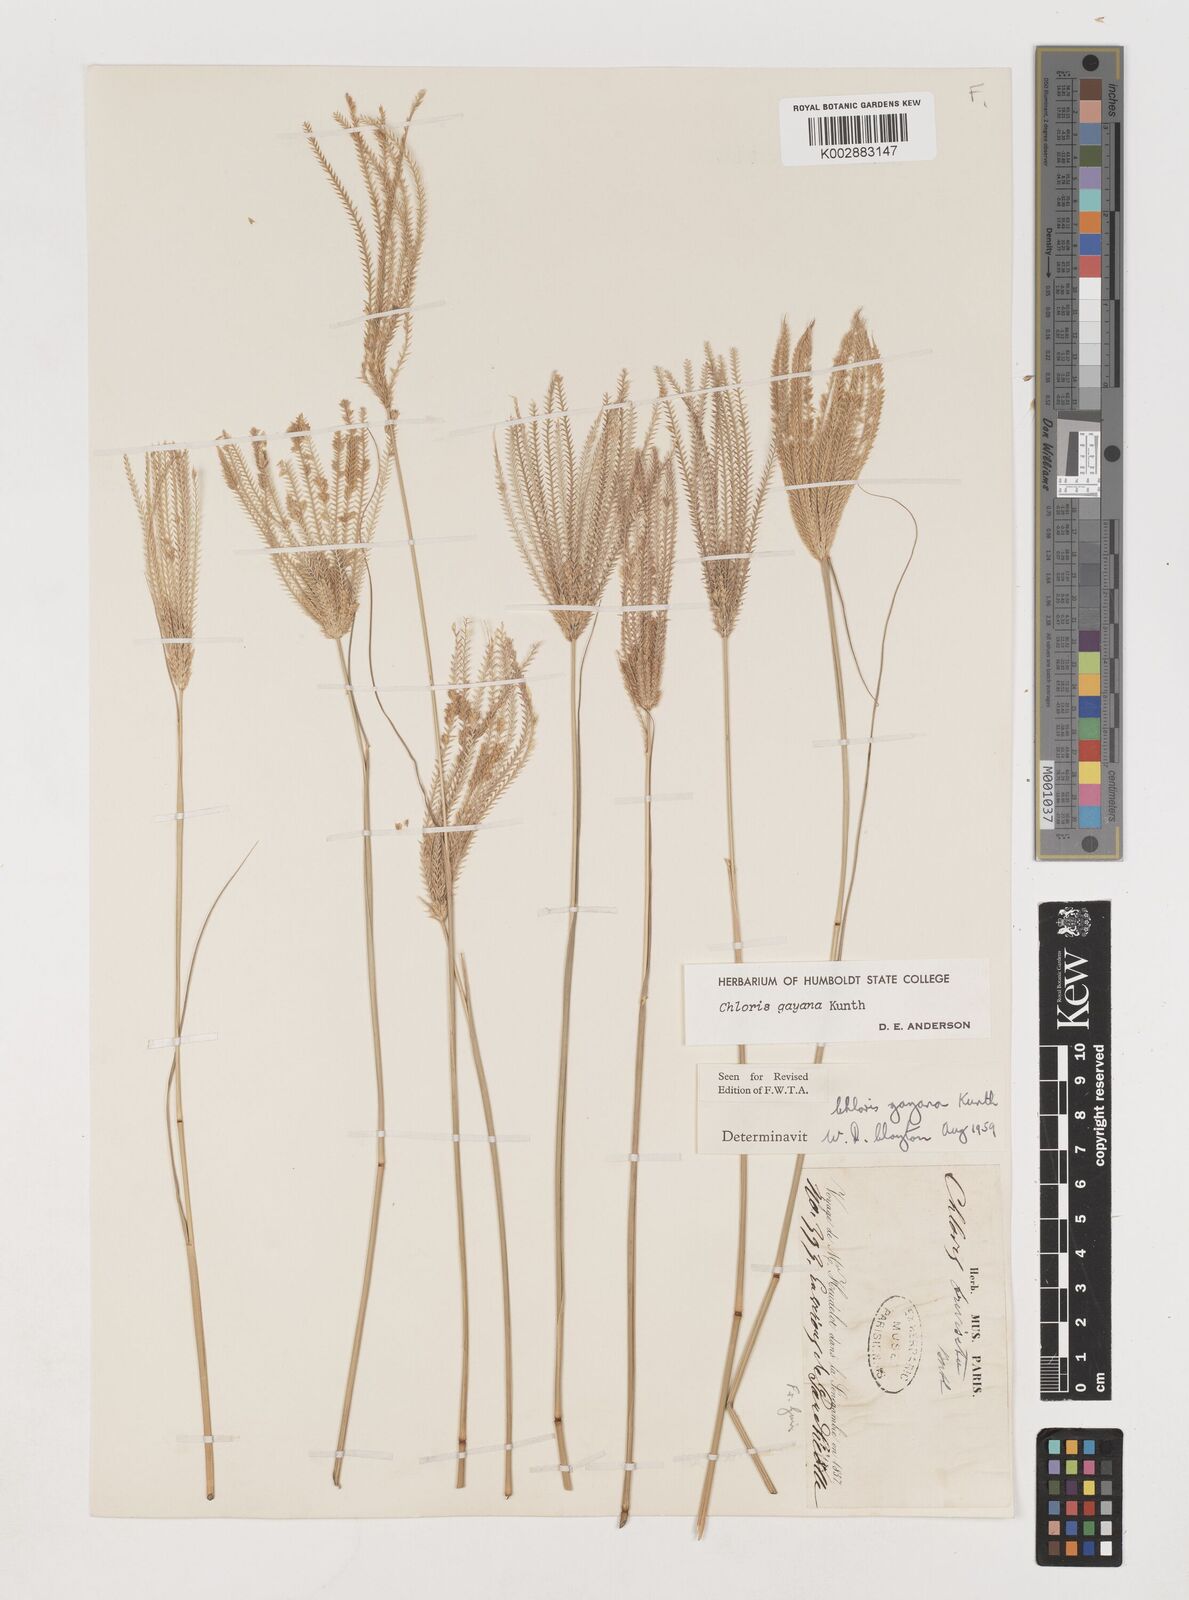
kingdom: Plantae
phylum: Tracheophyta
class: Liliopsida
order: Poales
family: Poaceae
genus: Chloris
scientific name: Chloris gayana
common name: Rhodes grass
